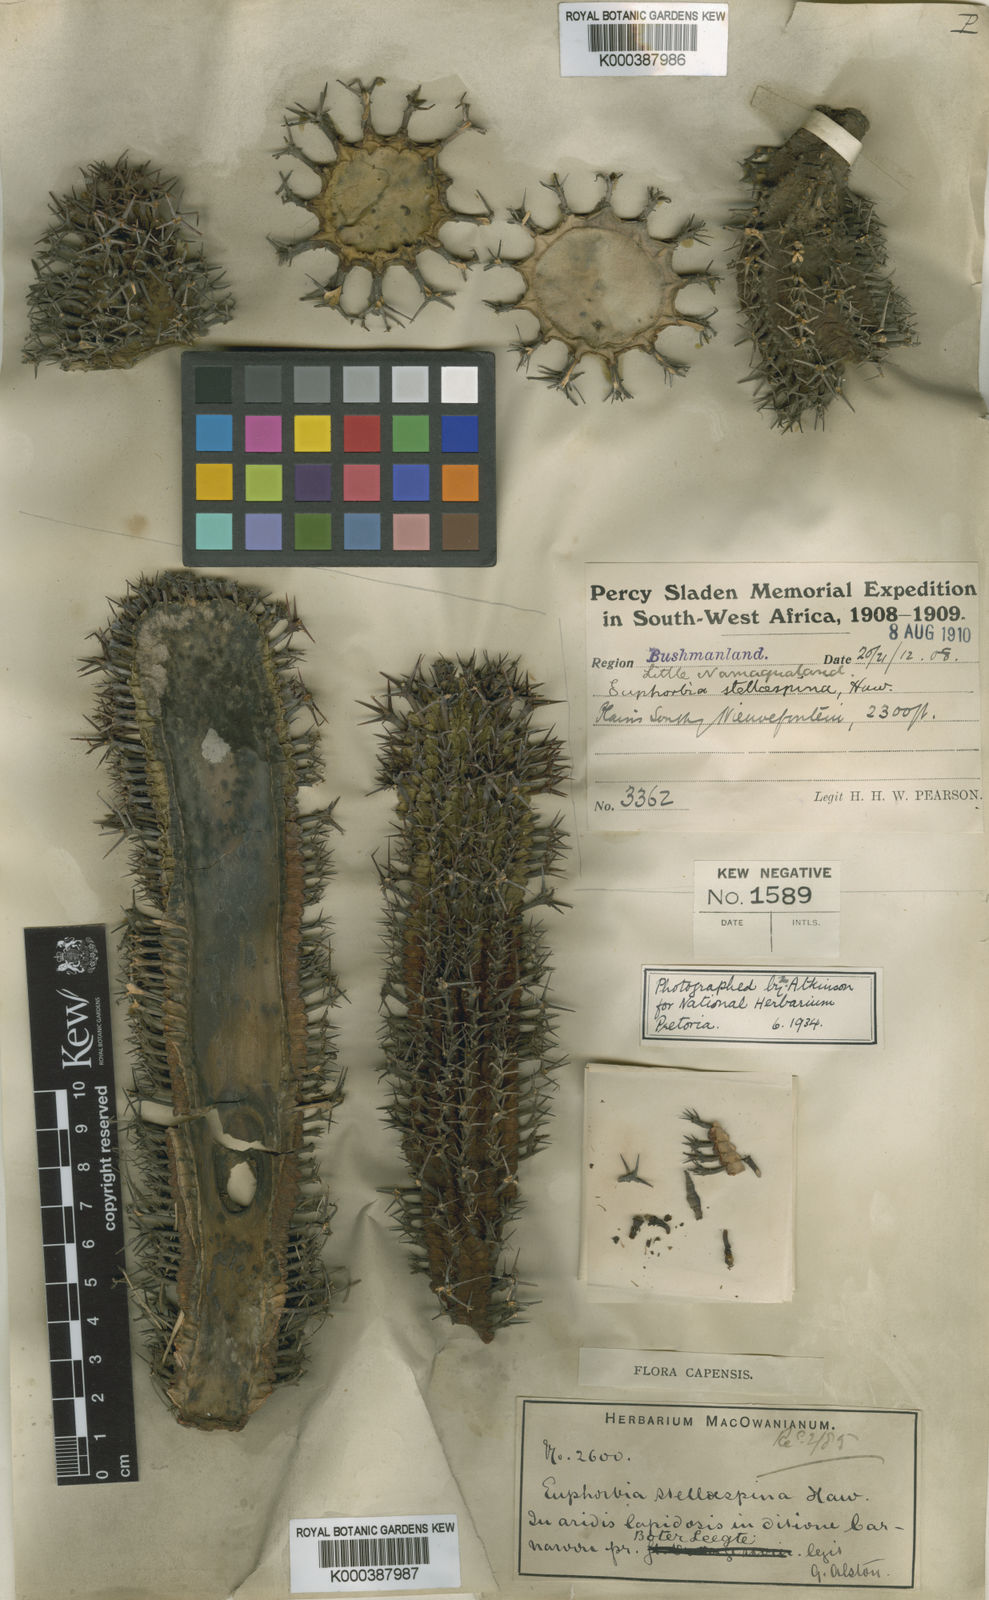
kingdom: Plantae
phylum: Tracheophyta
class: Magnoliopsida
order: Malpighiales
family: Euphorbiaceae
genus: Euphorbia
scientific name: Euphorbia
